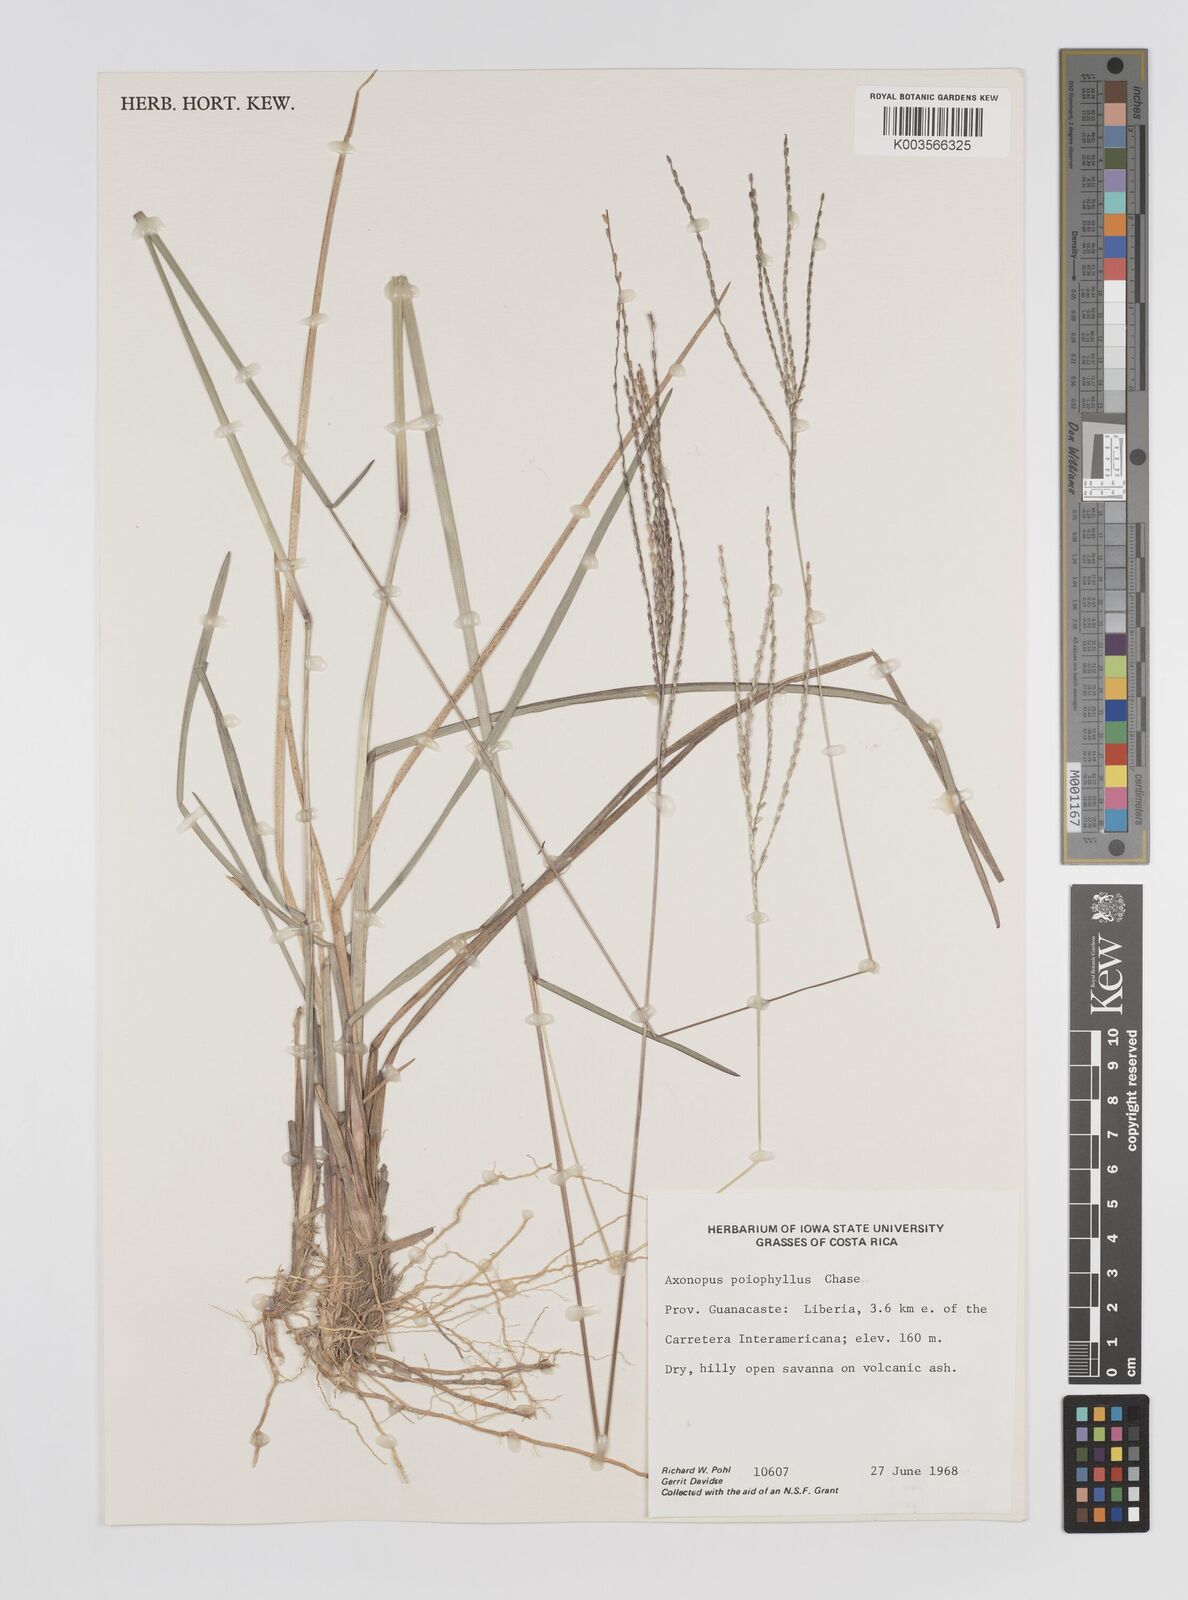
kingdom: Plantae
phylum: Tracheophyta
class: Liliopsida
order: Poales
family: Poaceae
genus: Axonopus
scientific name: Axonopus poiophyllus
